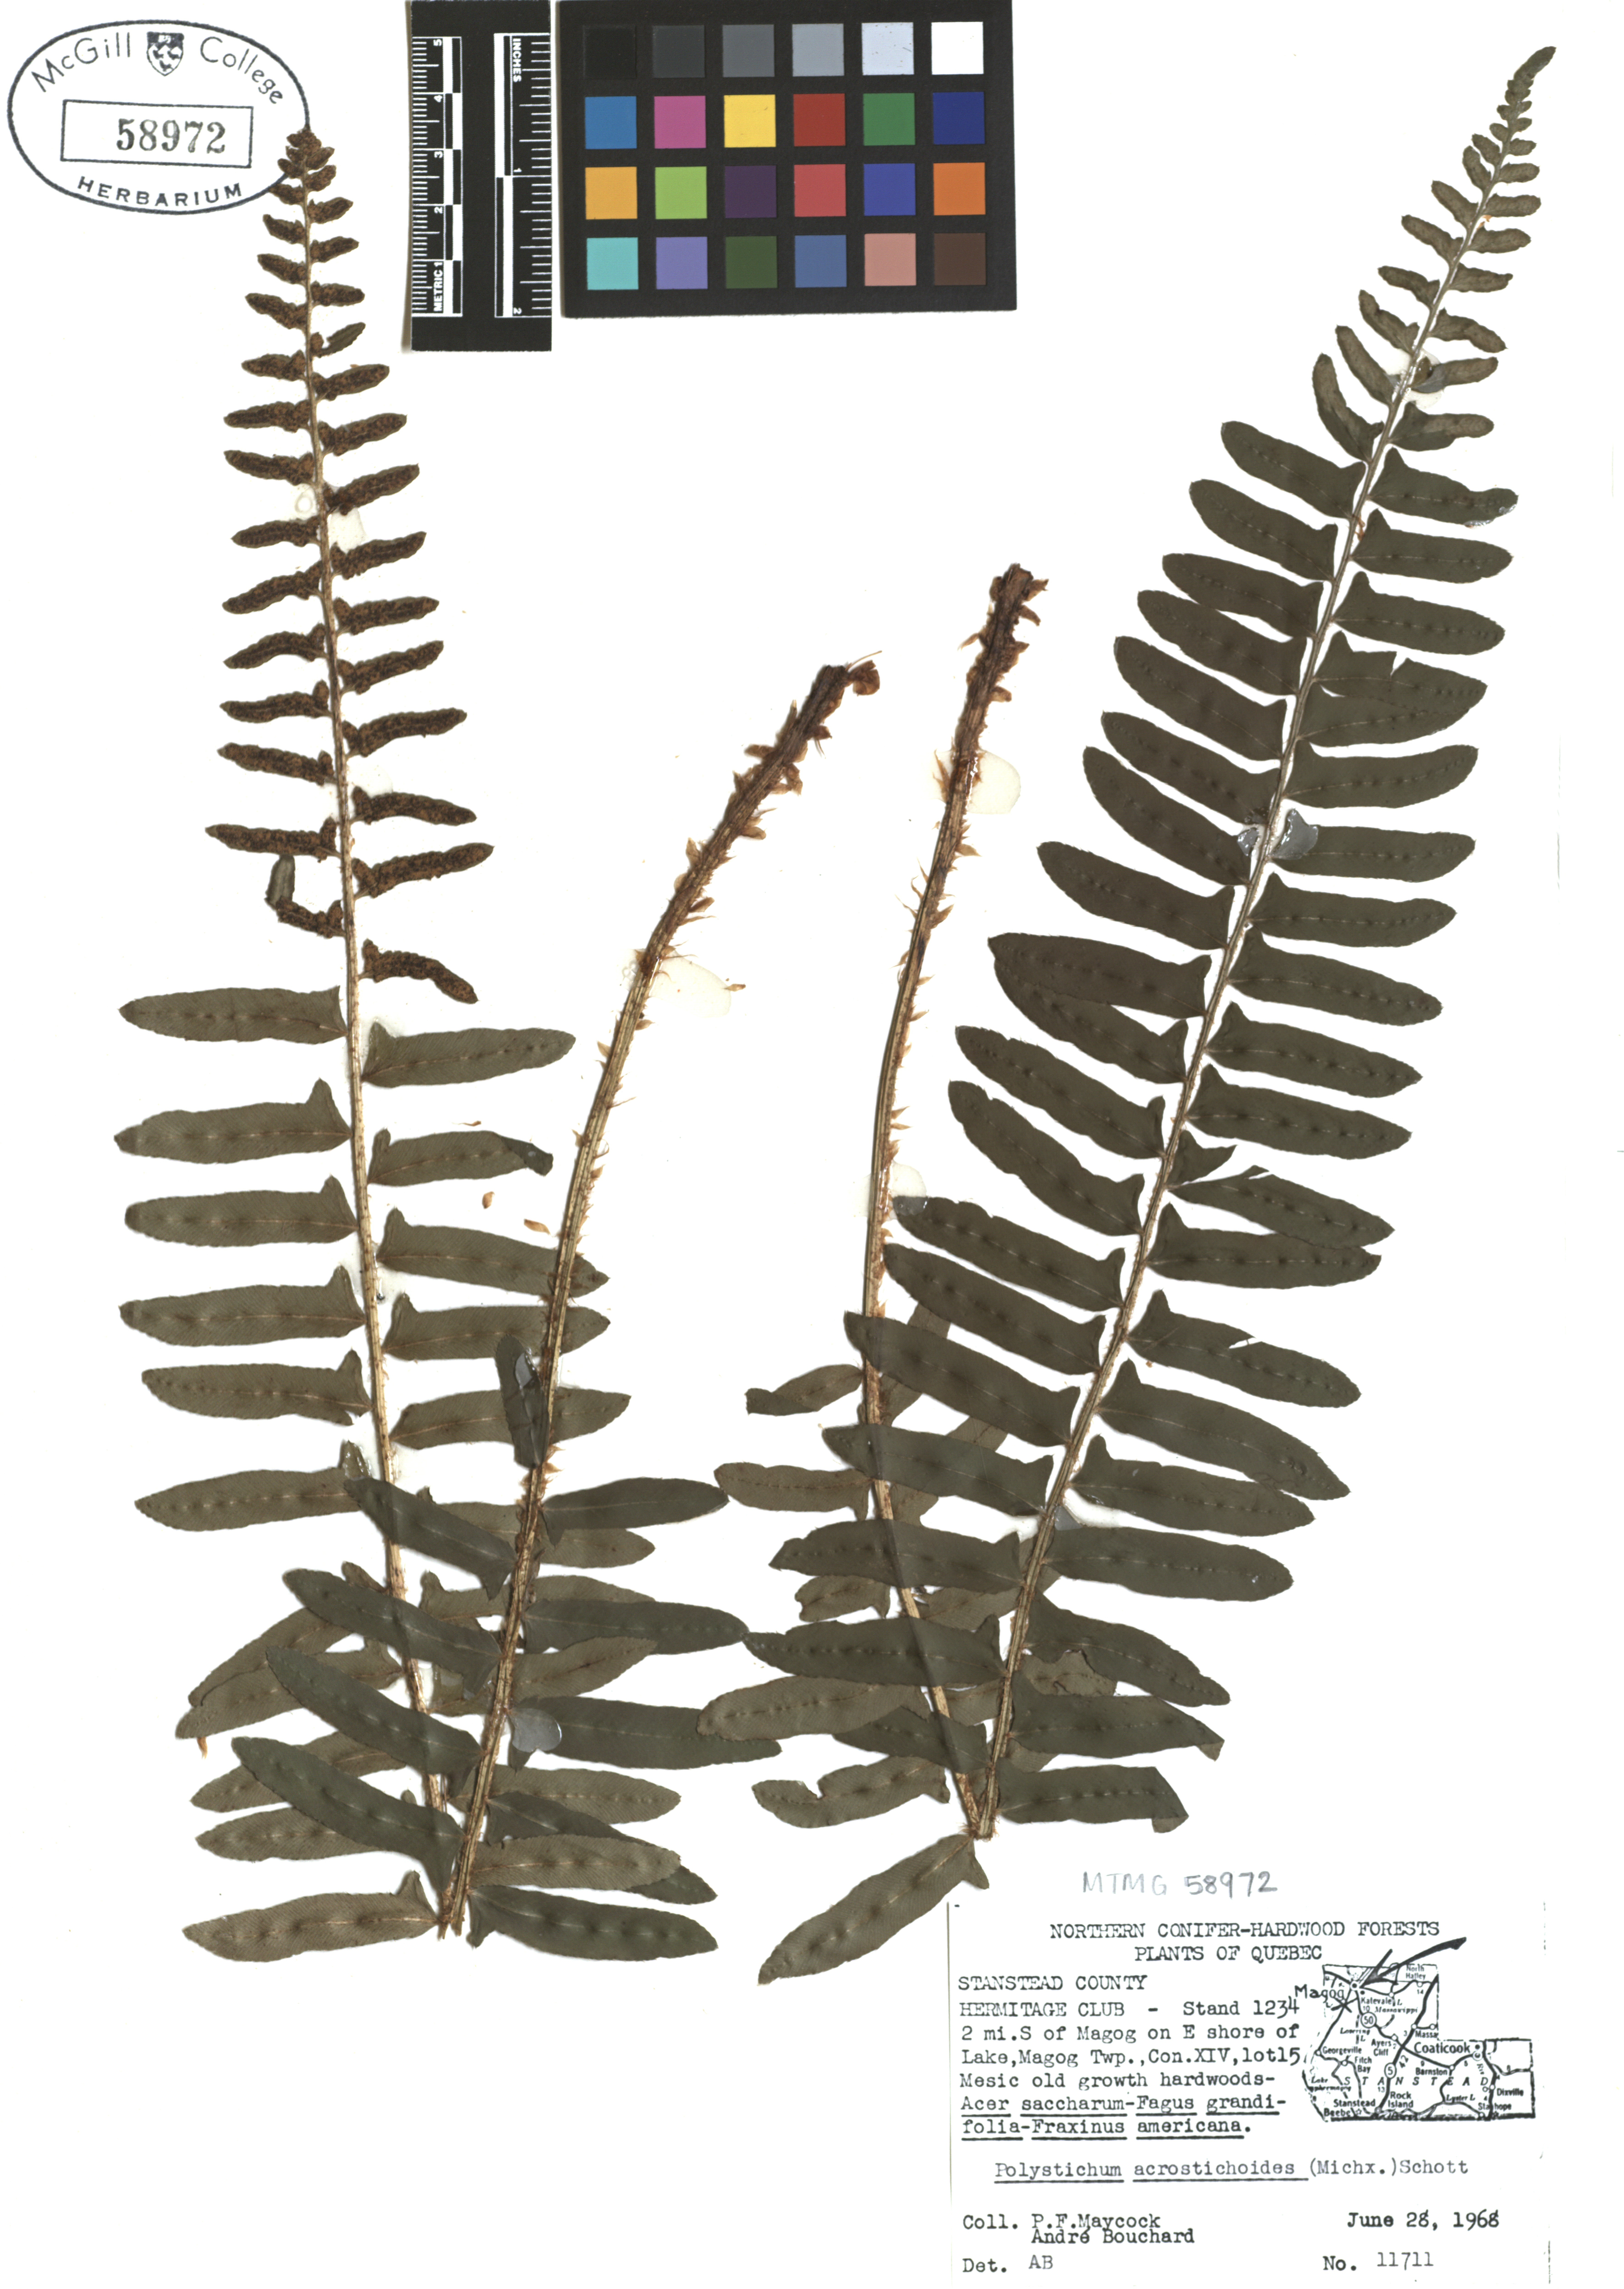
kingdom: Plantae
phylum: Tracheophyta
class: Polypodiopsida
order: Polypodiales
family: Dryopteridaceae
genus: Polystichum
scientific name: Polystichum acrostichoides
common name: Christmas fern
